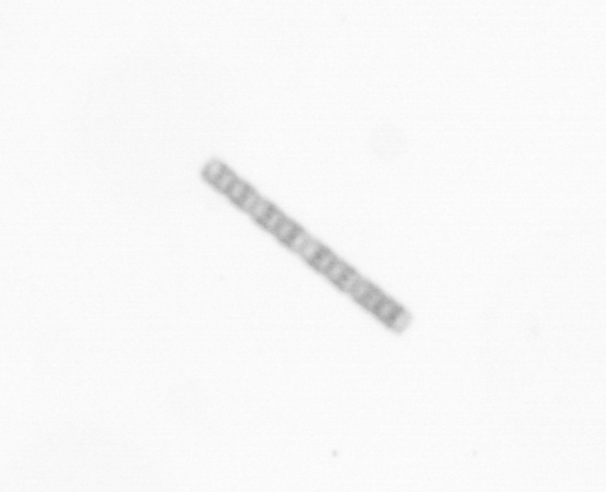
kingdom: Chromista
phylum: Ochrophyta
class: Bacillariophyceae
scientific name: Bacillariophyceae
